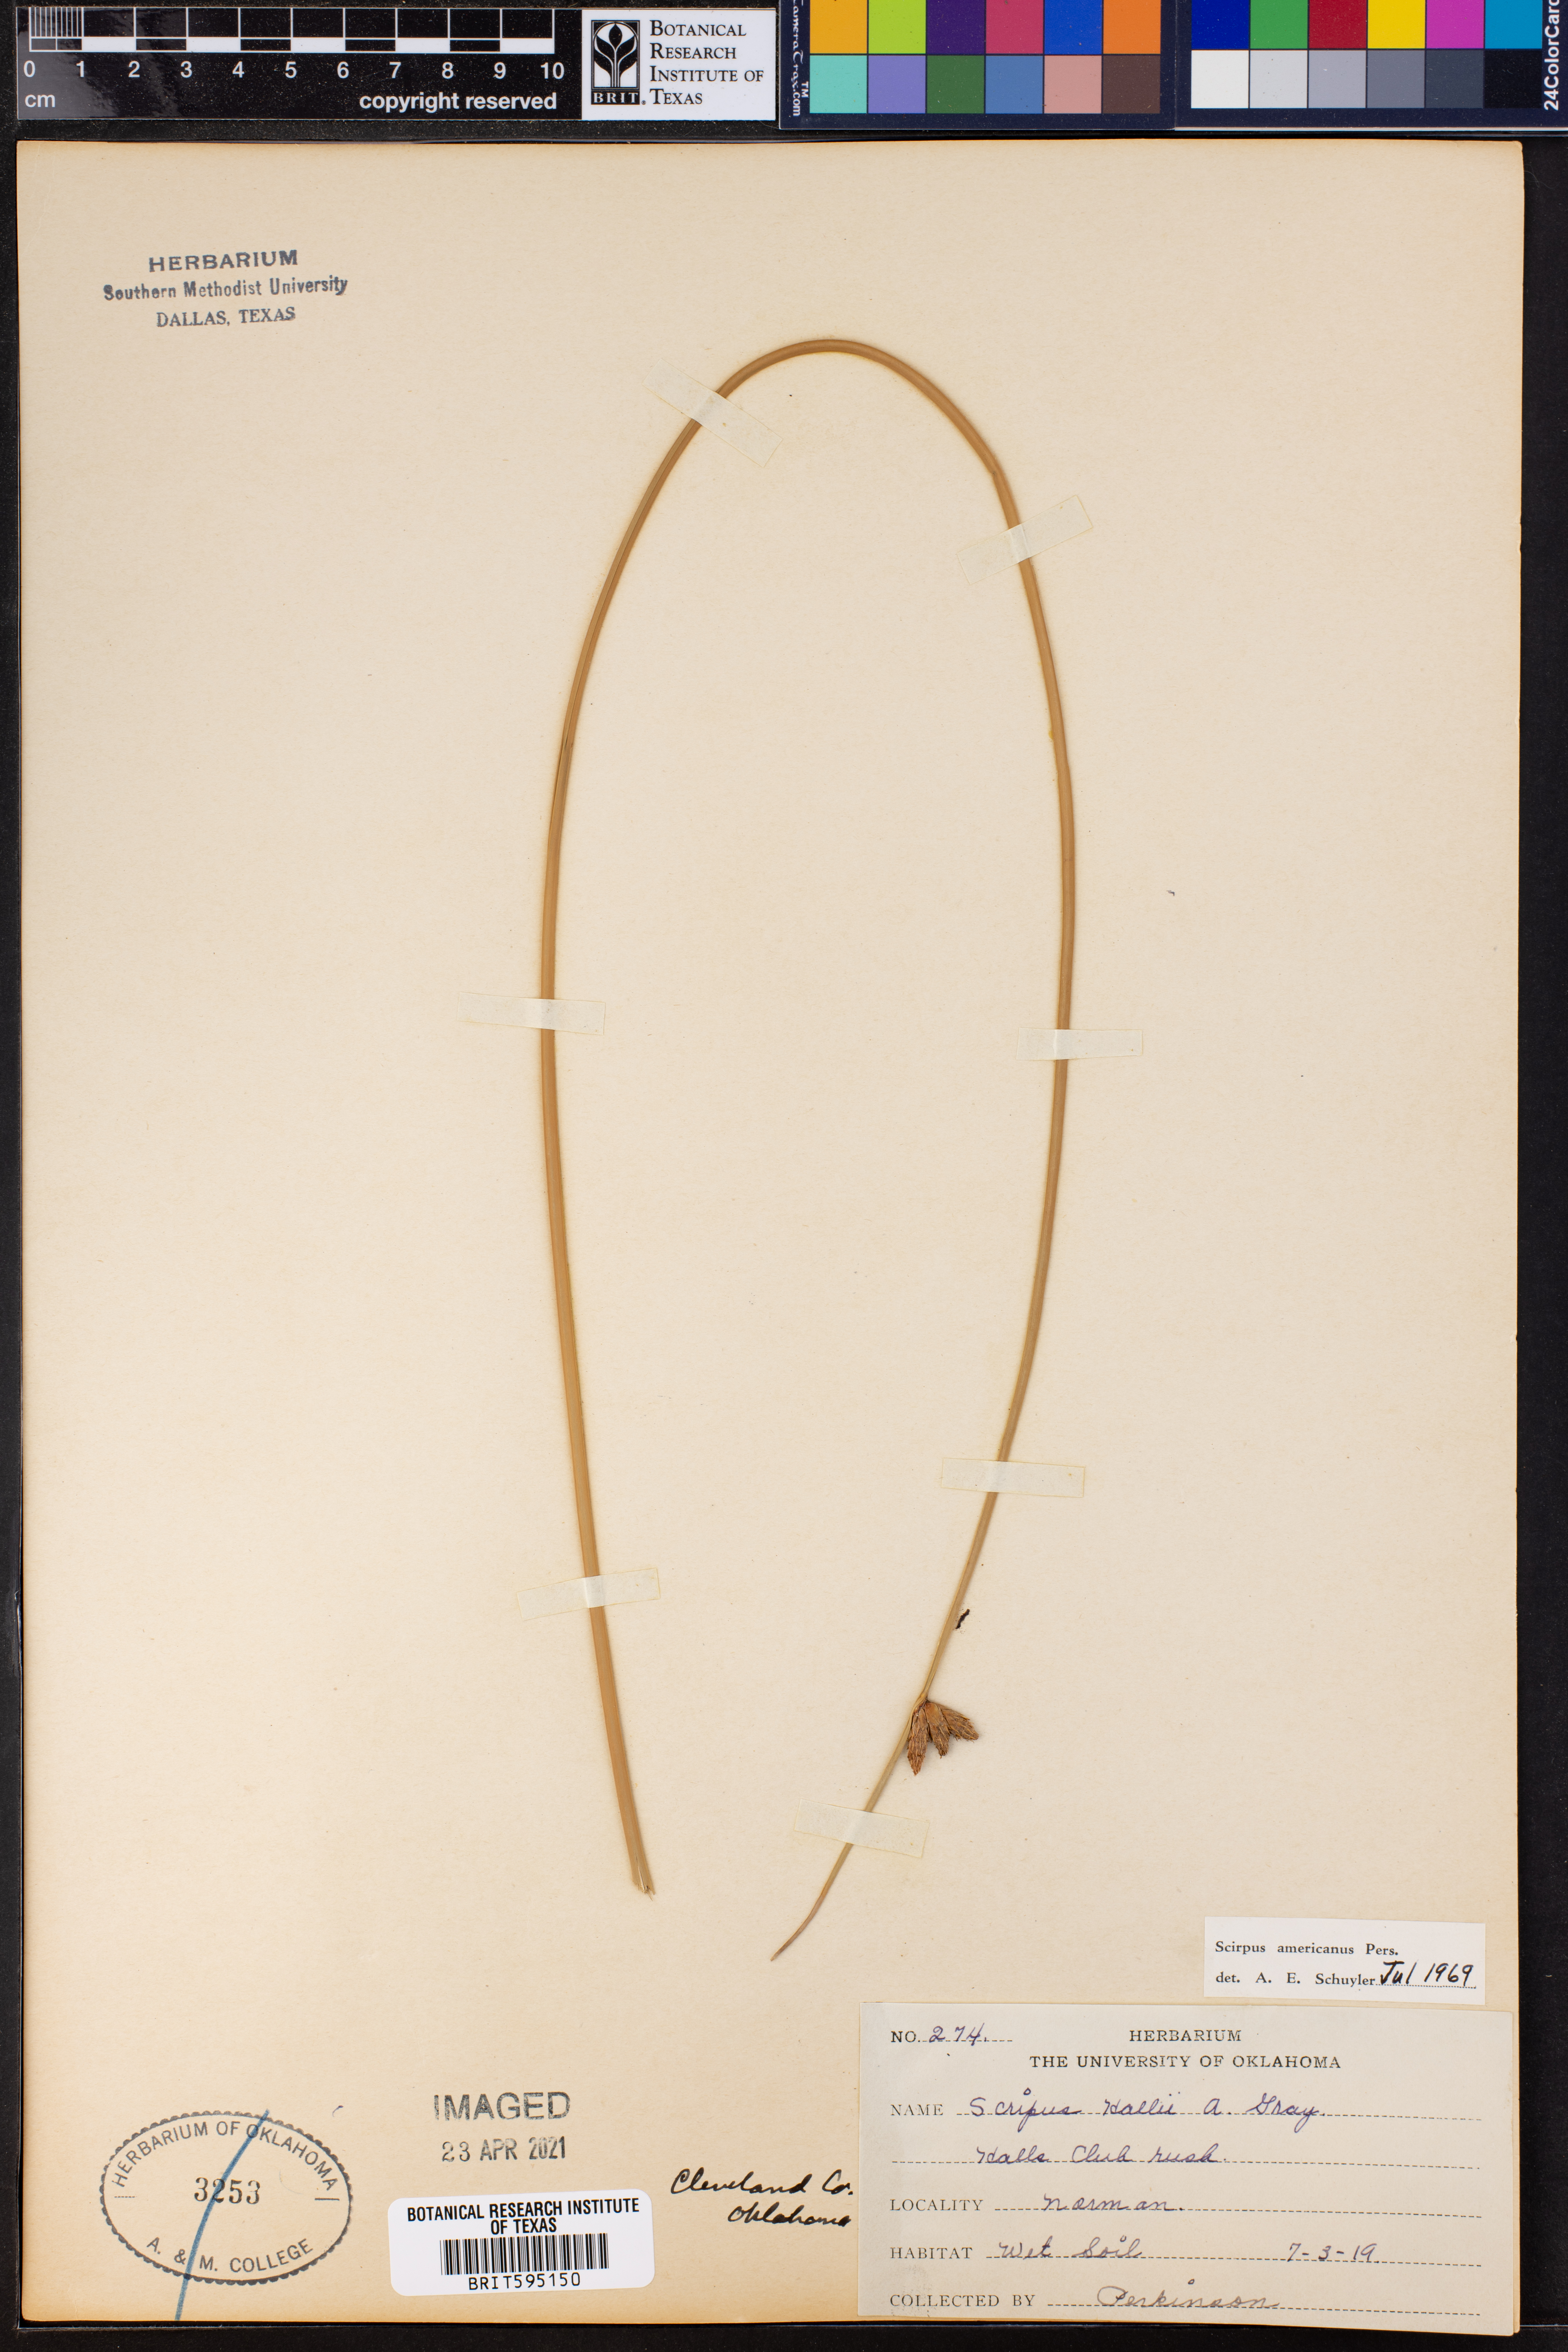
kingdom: Plantae
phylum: Tracheophyta
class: Liliopsida
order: Poales
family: Cyperaceae
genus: Schoenoplectus
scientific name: Schoenoplectus americanus
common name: American three-square bulrush
